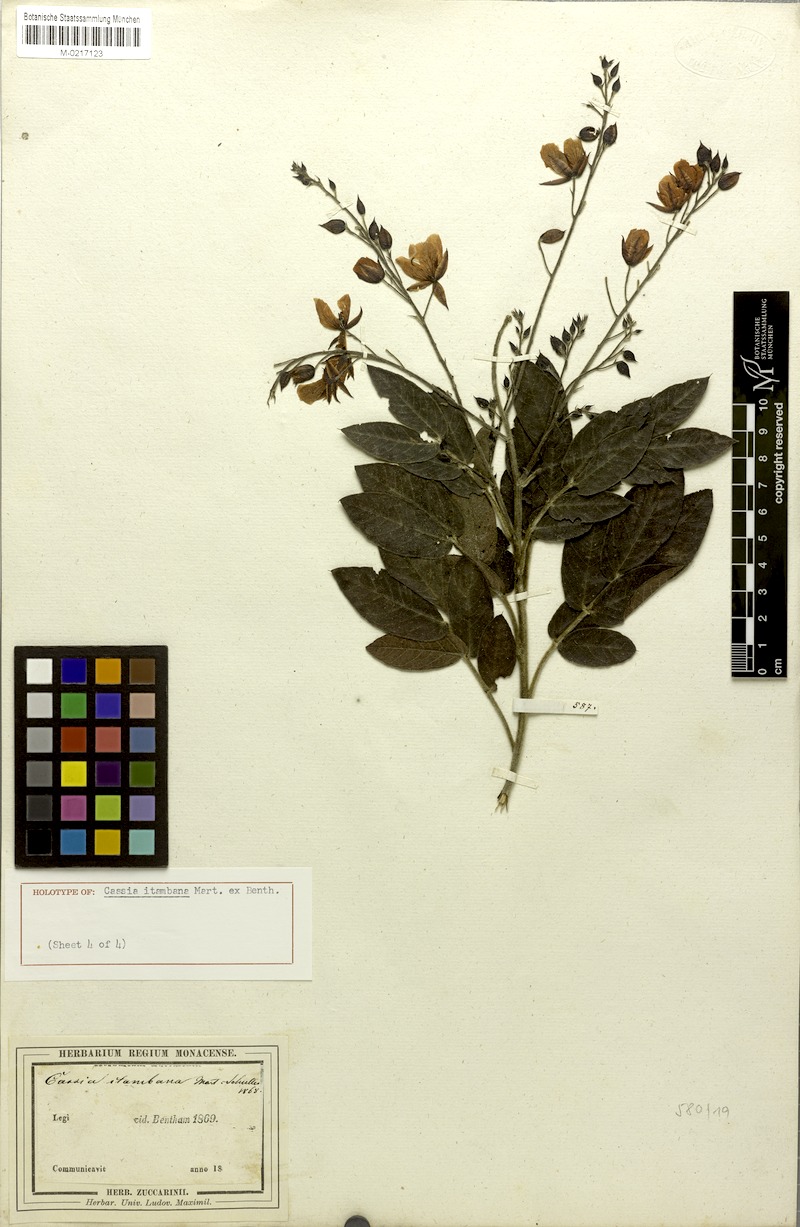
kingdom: Plantae
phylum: Tracheophyta
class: Magnoliopsida
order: Fabales
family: Fabaceae
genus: Chamaecrista
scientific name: Chamaecrista itambana
